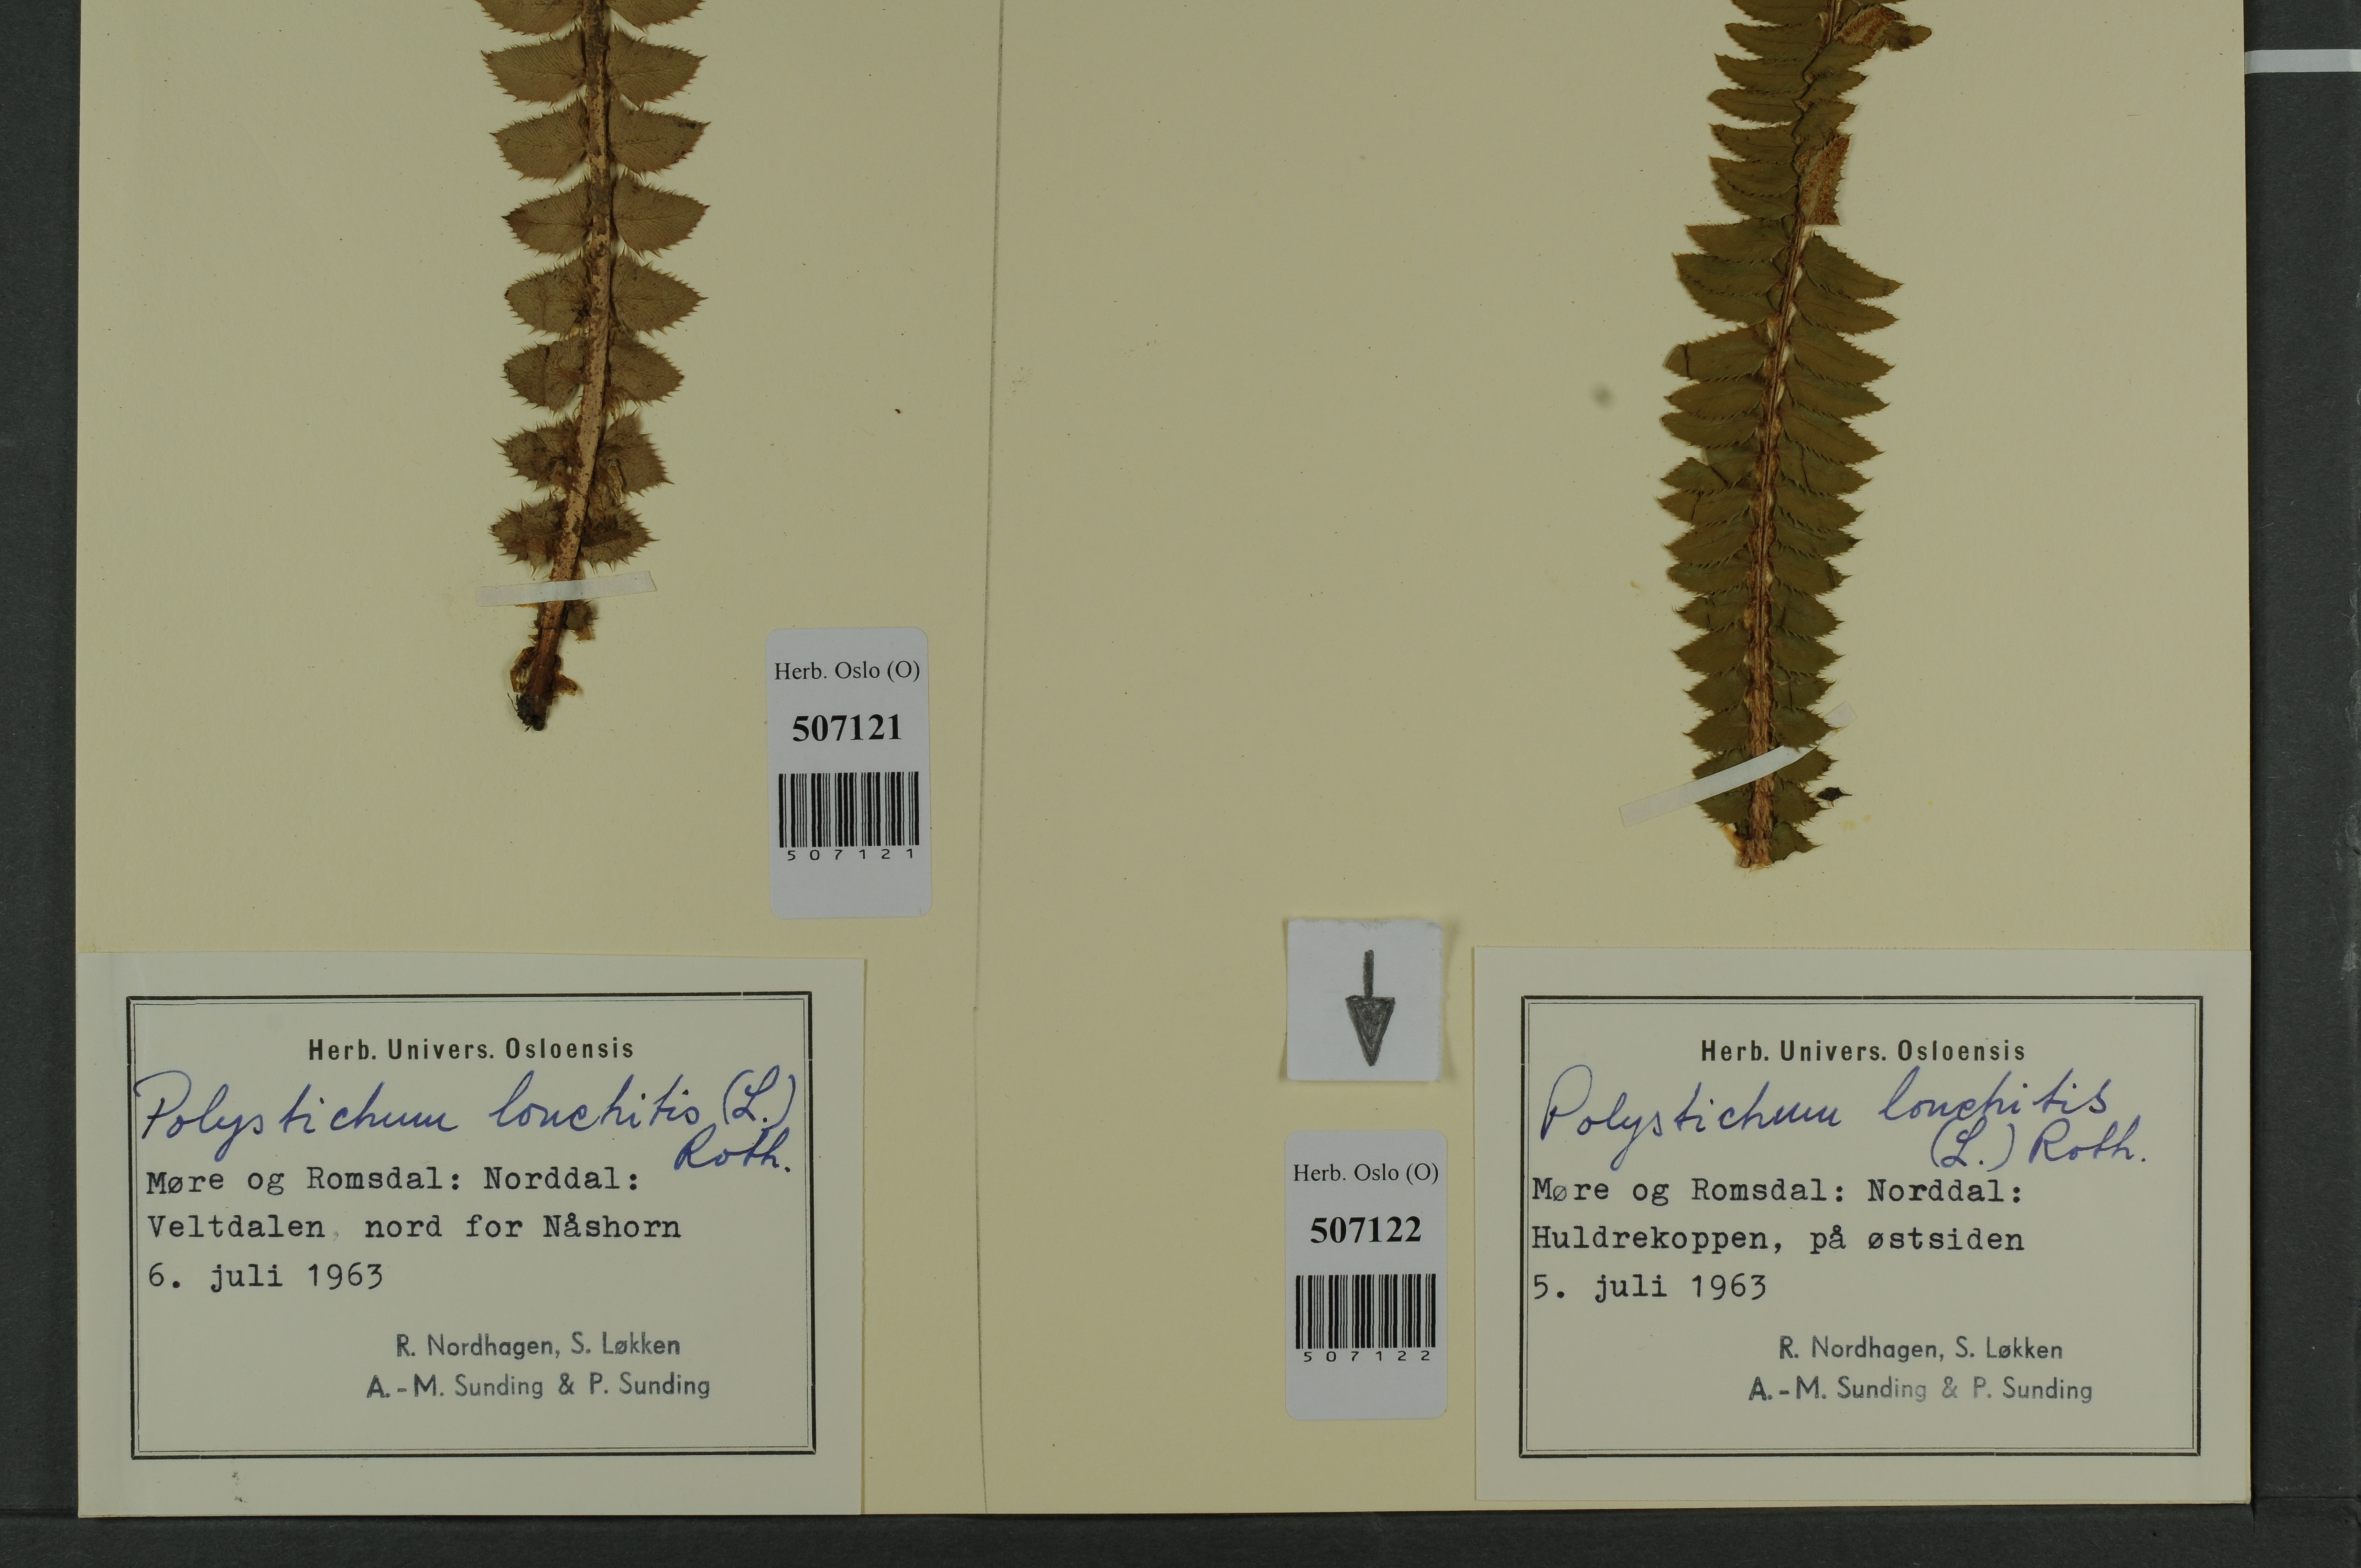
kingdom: Plantae
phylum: Tracheophyta
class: Polypodiopsida
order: Polypodiales
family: Dryopteridaceae
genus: Polystichum
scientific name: Polystichum lonchitis
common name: Holly fern
